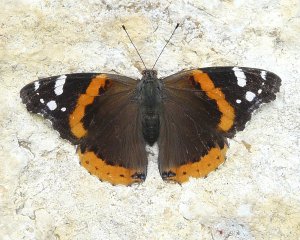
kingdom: Animalia
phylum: Arthropoda
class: Insecta
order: Lepidoptera
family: Nymphalidae
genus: Vanessa
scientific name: Vanessa atalanta
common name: Red Admiral
